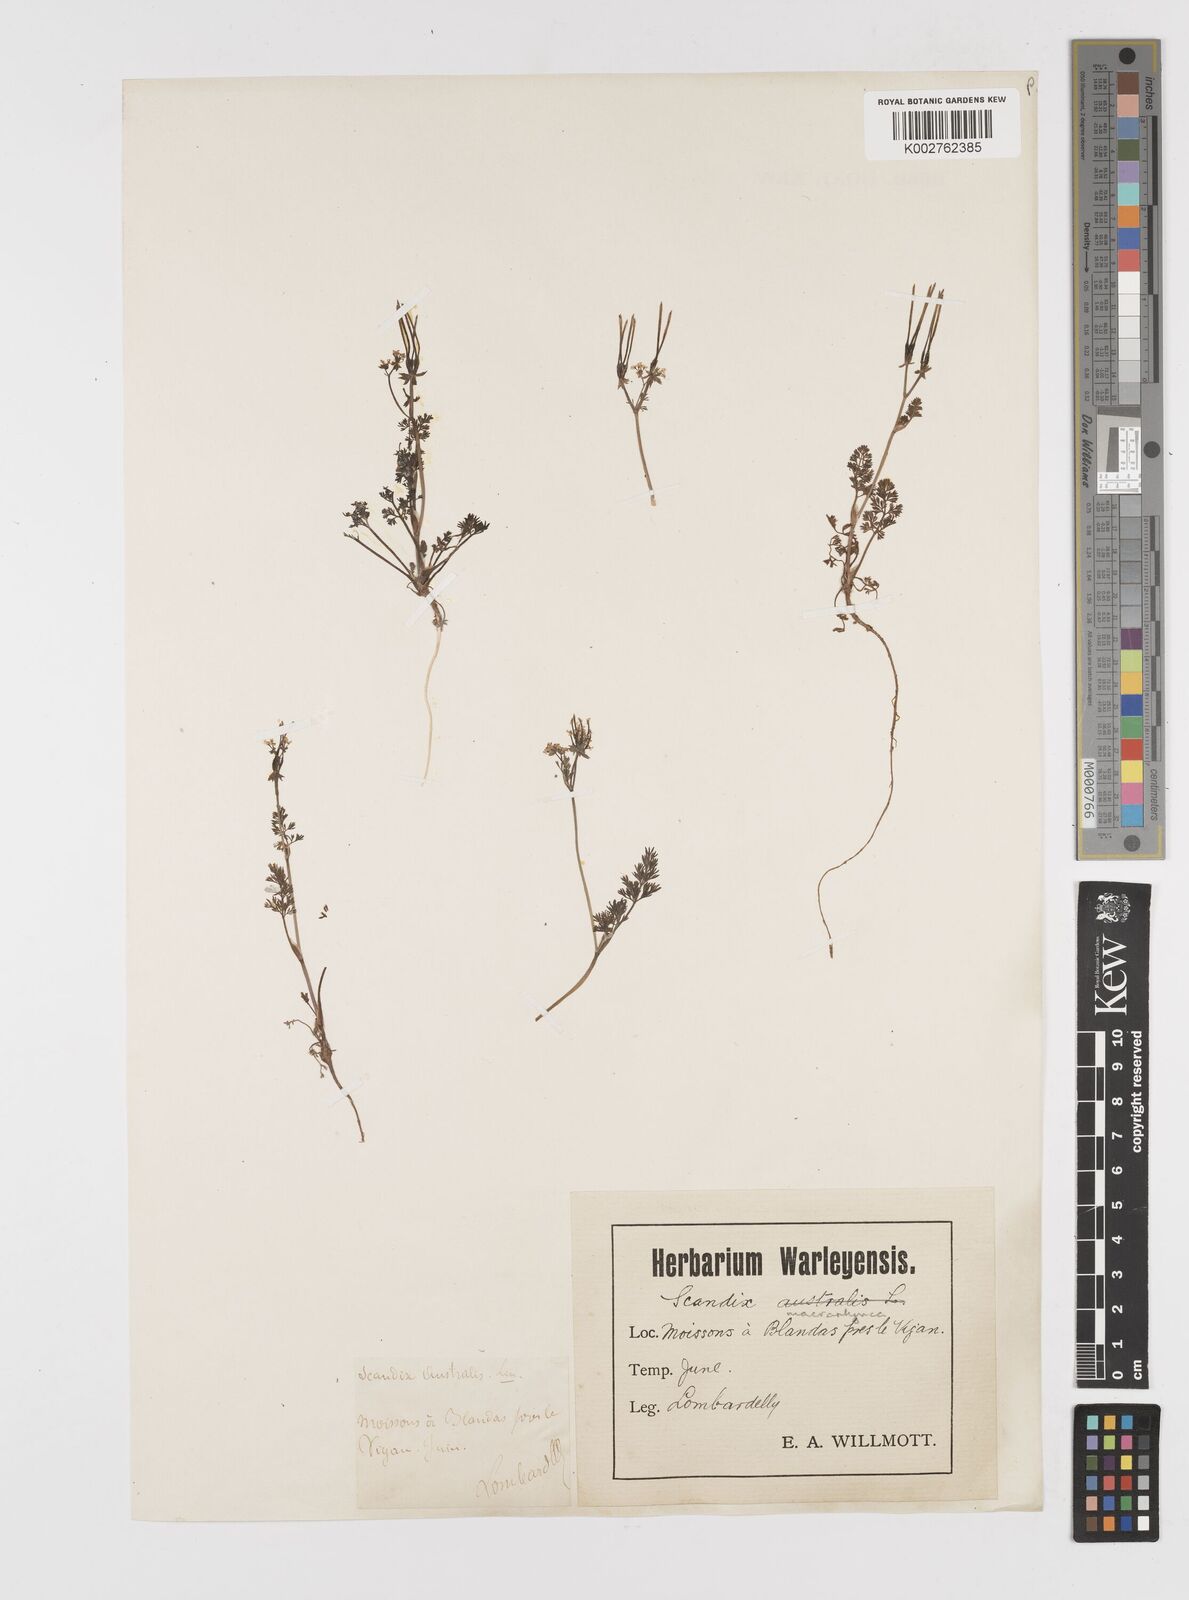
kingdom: Plantae
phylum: Tracheophyta
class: Magnoliopsida
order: Apiales
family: Apiaceae
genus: Scandix
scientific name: Scandix pecten-veneris
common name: Shepherd's-needle
